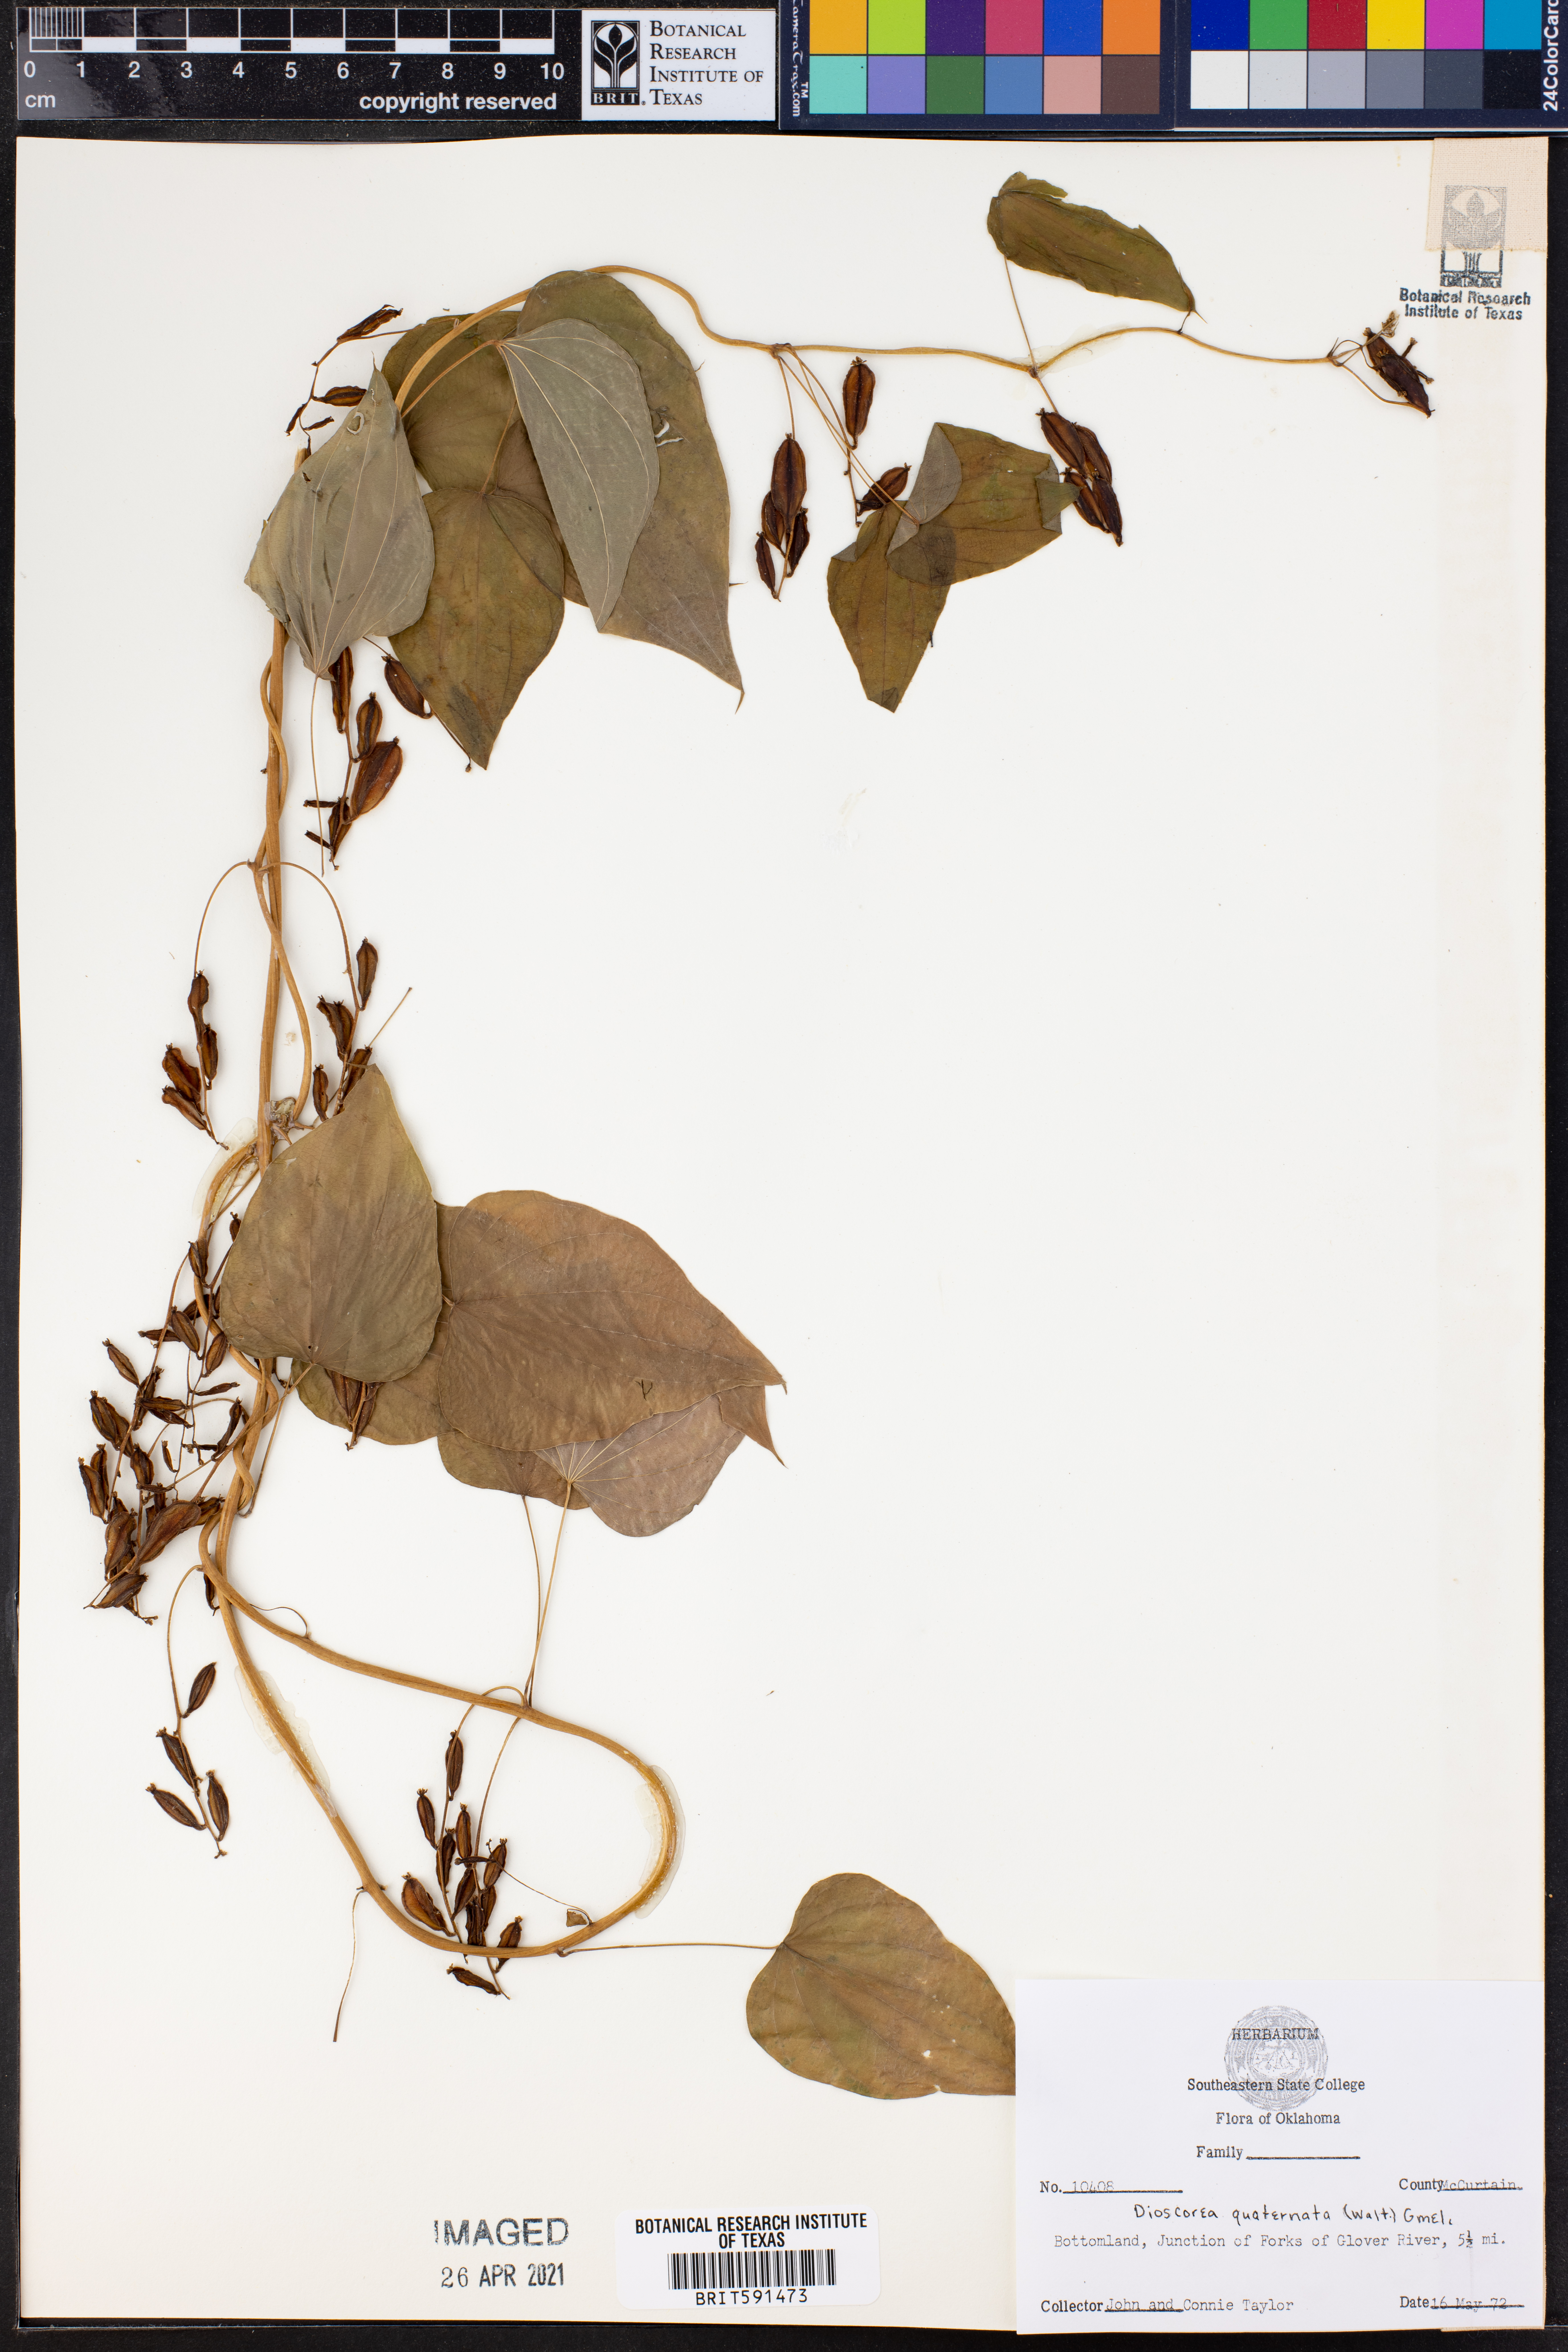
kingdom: Plantae
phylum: Tracheophyta
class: Liliopsida
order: Dioscoreales
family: Dioscoreaceae
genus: Dioscorea
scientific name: Dioscorea quaternata
